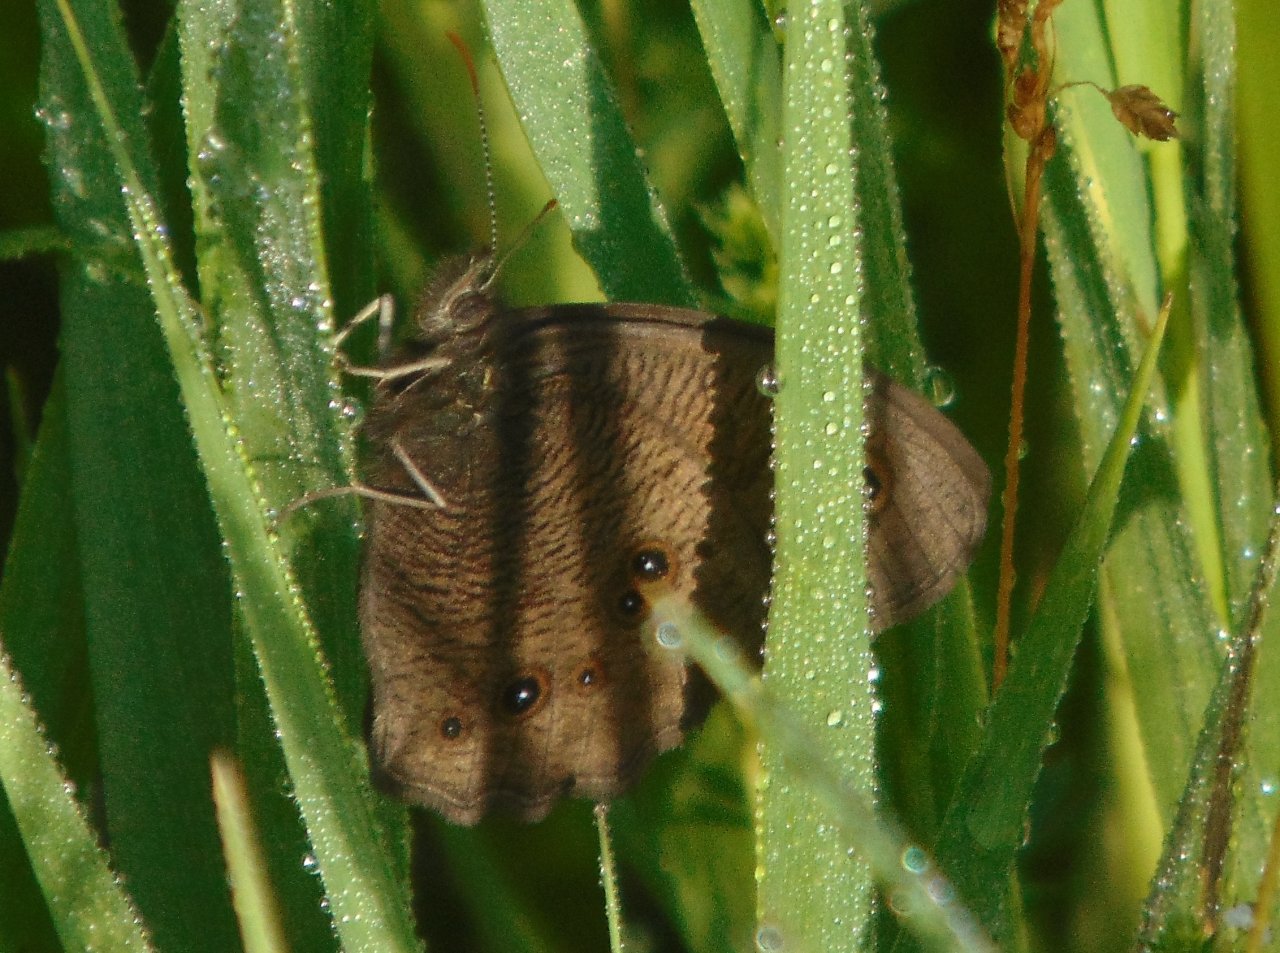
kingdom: Animalia
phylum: Arthropoda
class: Insecta
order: Lepidoptera
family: Nymphalidae
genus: Cercyonis
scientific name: Cercyonis pegala
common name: Common Wood-Nymph
